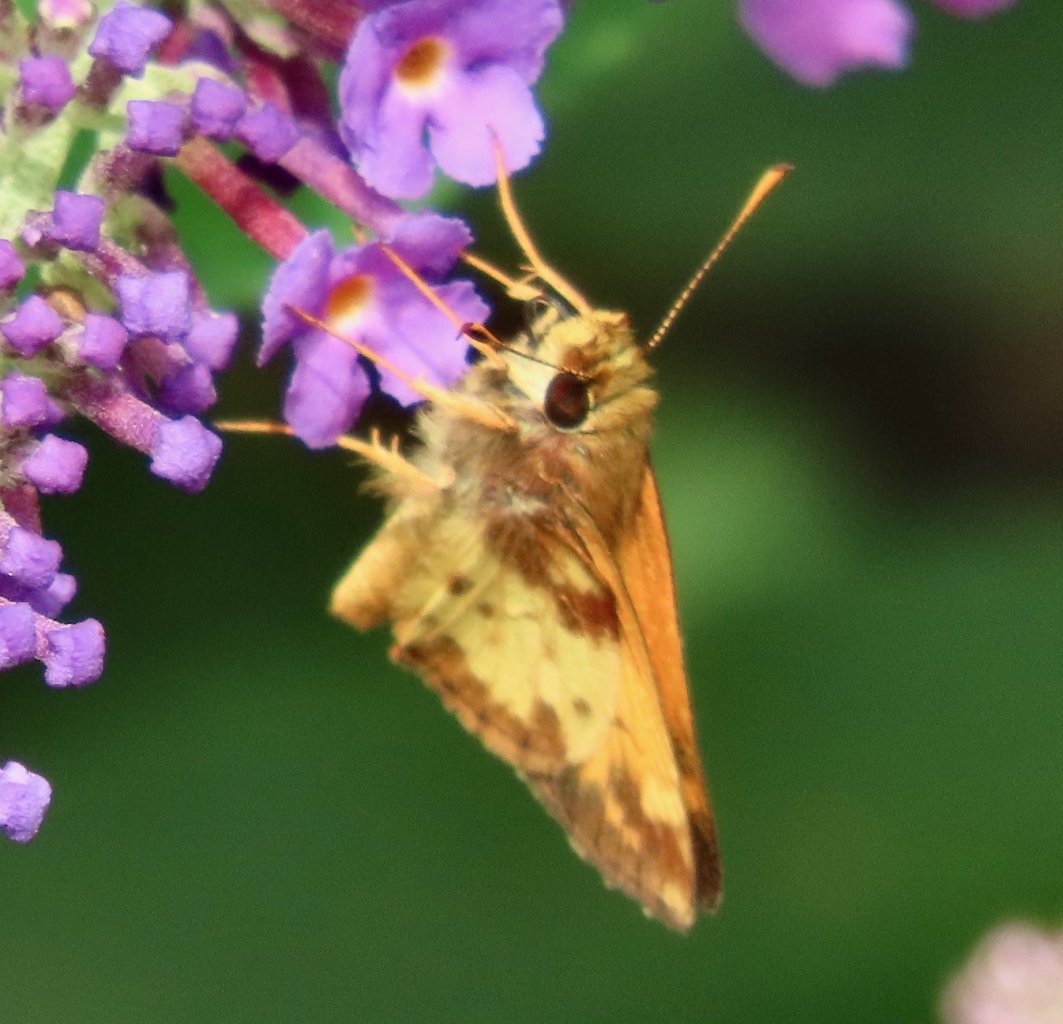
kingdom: Animalia
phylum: Arthropoda
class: Insecta
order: Lepidoptera
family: Hesperiidae
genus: Lon
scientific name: Lon zabulon
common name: Zabulon Skipper
